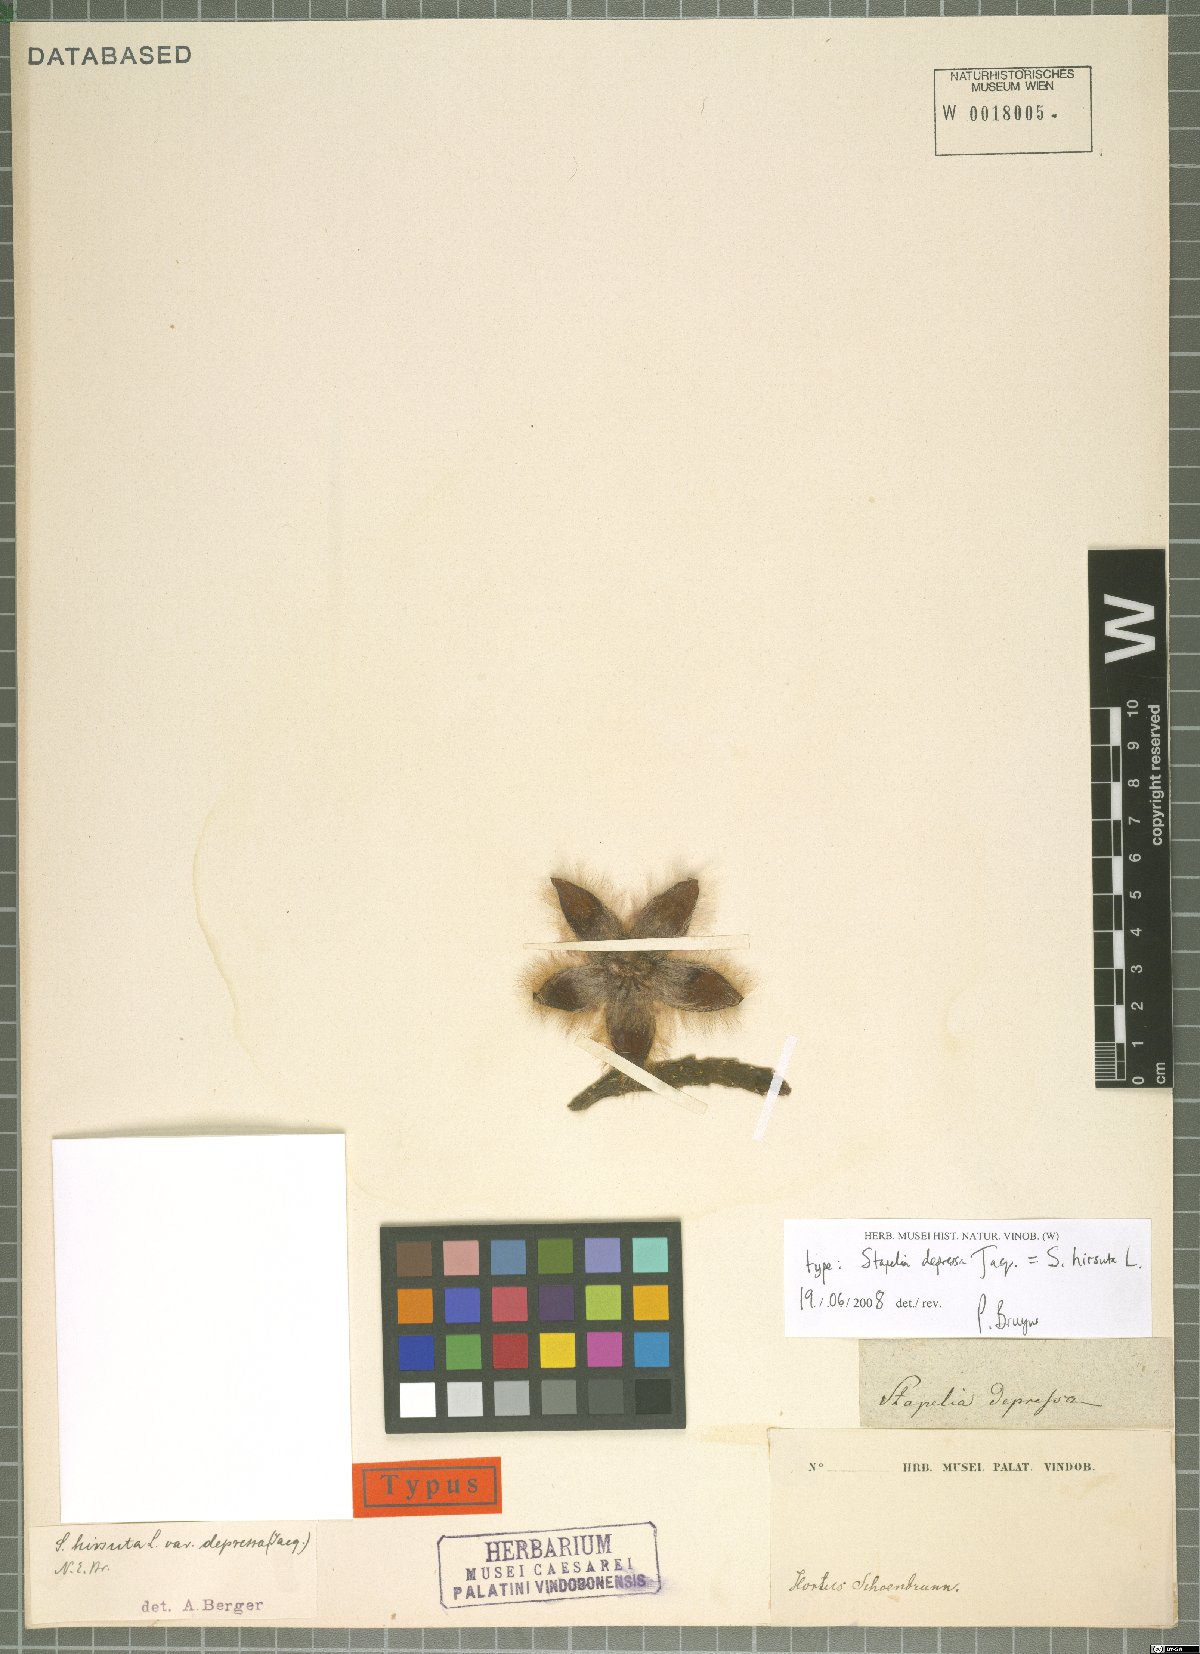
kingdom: Plantae
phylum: Tracheophyta
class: Magnoliopsida
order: Gentianales
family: Apocynaceae
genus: Ceropegia
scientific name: Ceropegia pulvinata
